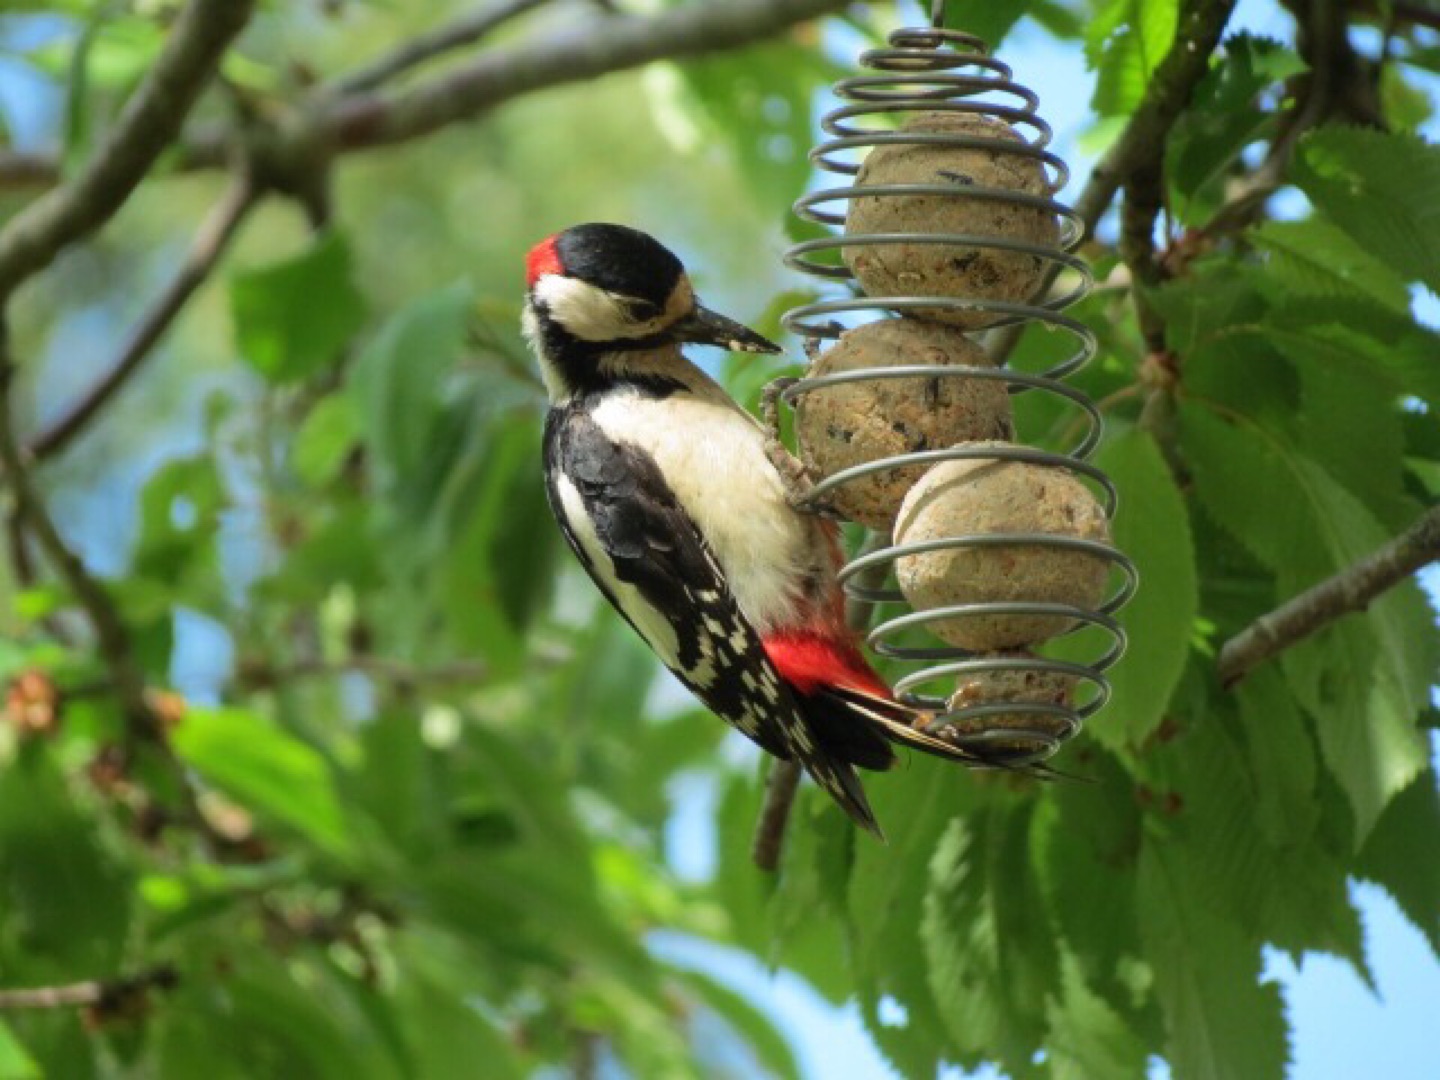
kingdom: Animalia
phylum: Chordata
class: Aves
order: Piciformes
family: Picidae
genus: Dendrocopos
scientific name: Dendrocopos major
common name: Stor flagspætte
